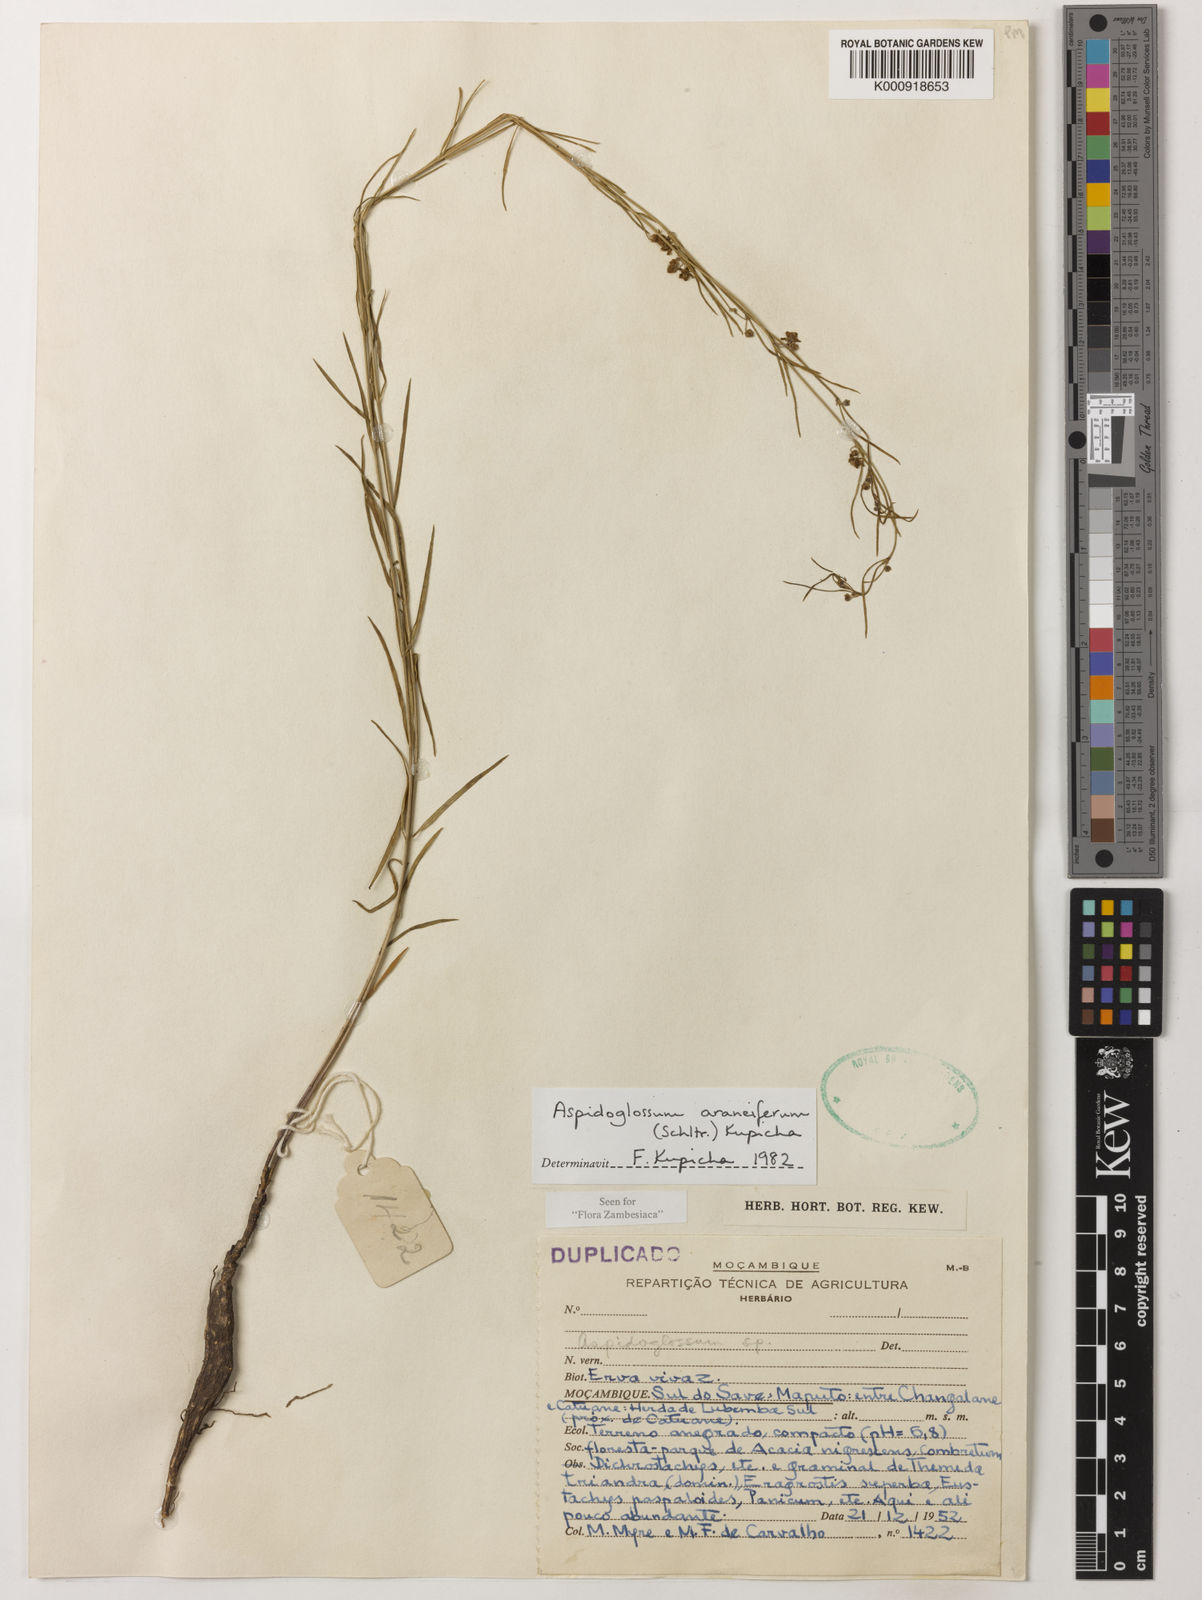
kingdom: Plantae
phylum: Tracheophyta
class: Magnoliopsida
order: Gentianales
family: Apocynaceae
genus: Aspidoglossum
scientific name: Aspidoglossum araneiferum
